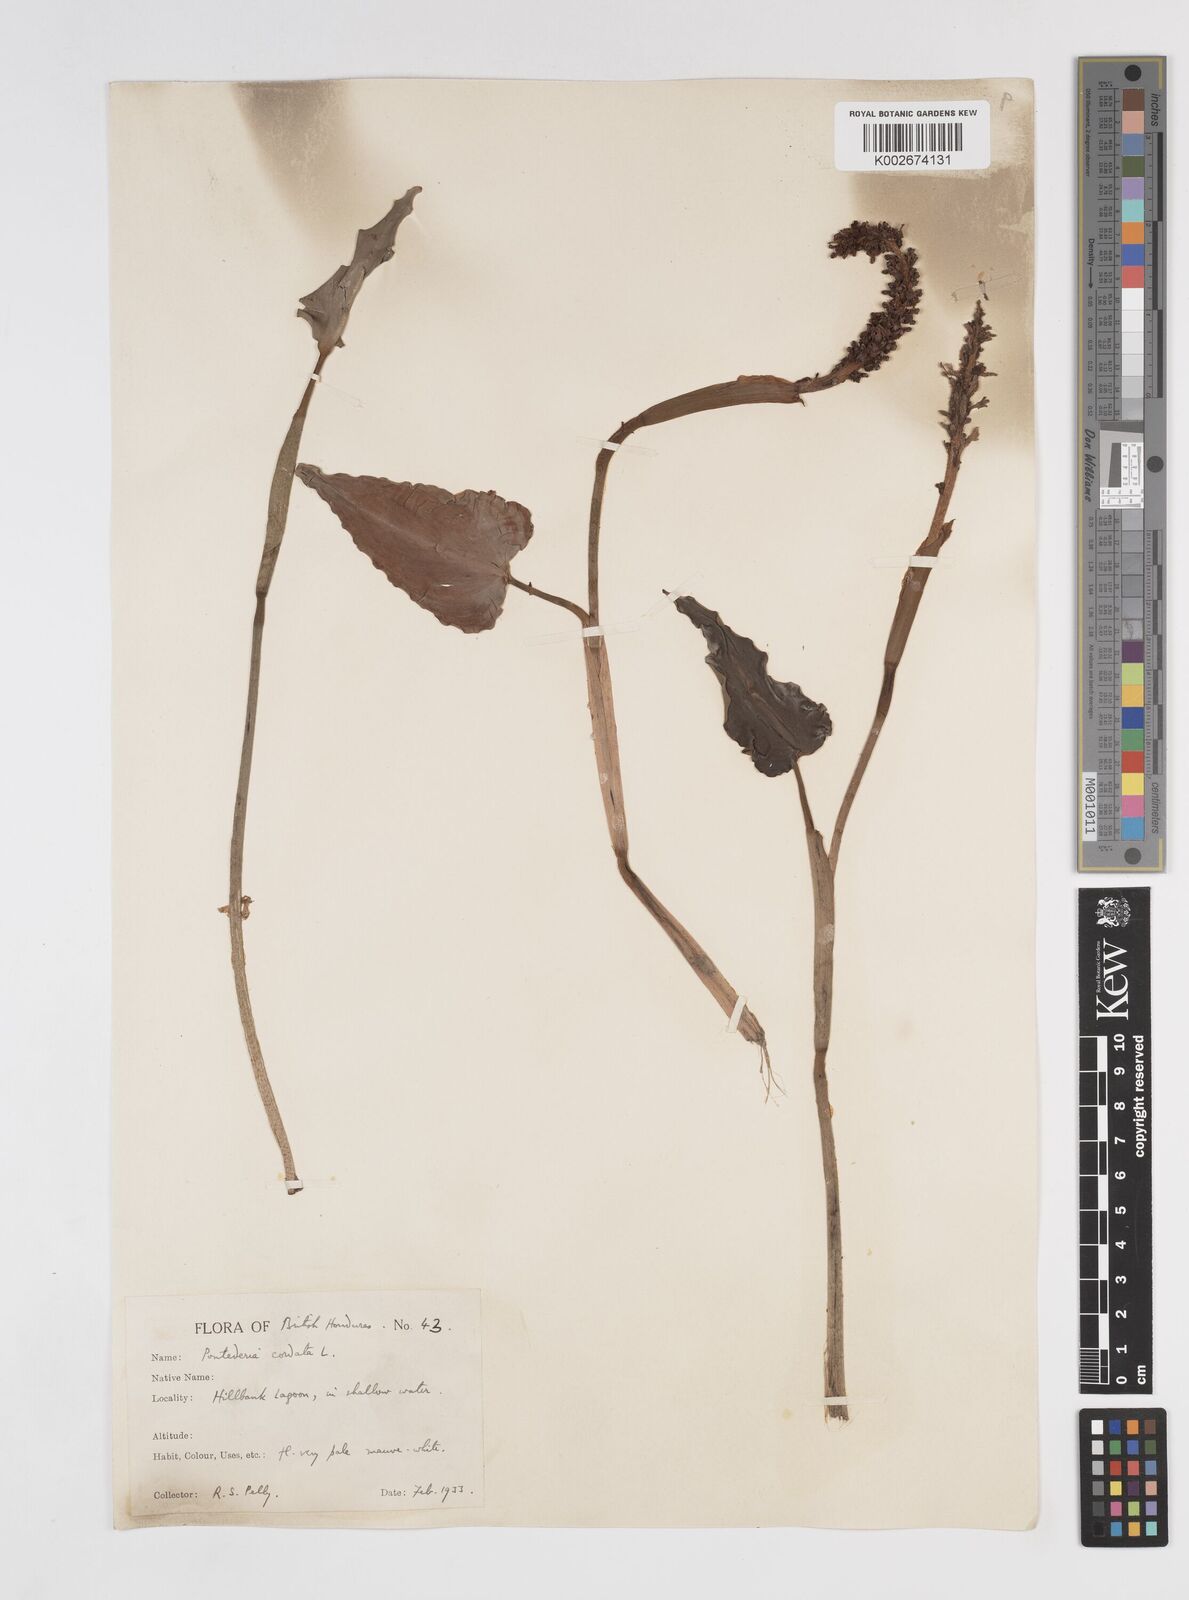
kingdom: Plantae
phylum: Tracheophyta
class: Liliopsida
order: Commelinales
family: Pontederiaceae
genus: Pontederia
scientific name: Pontederia
